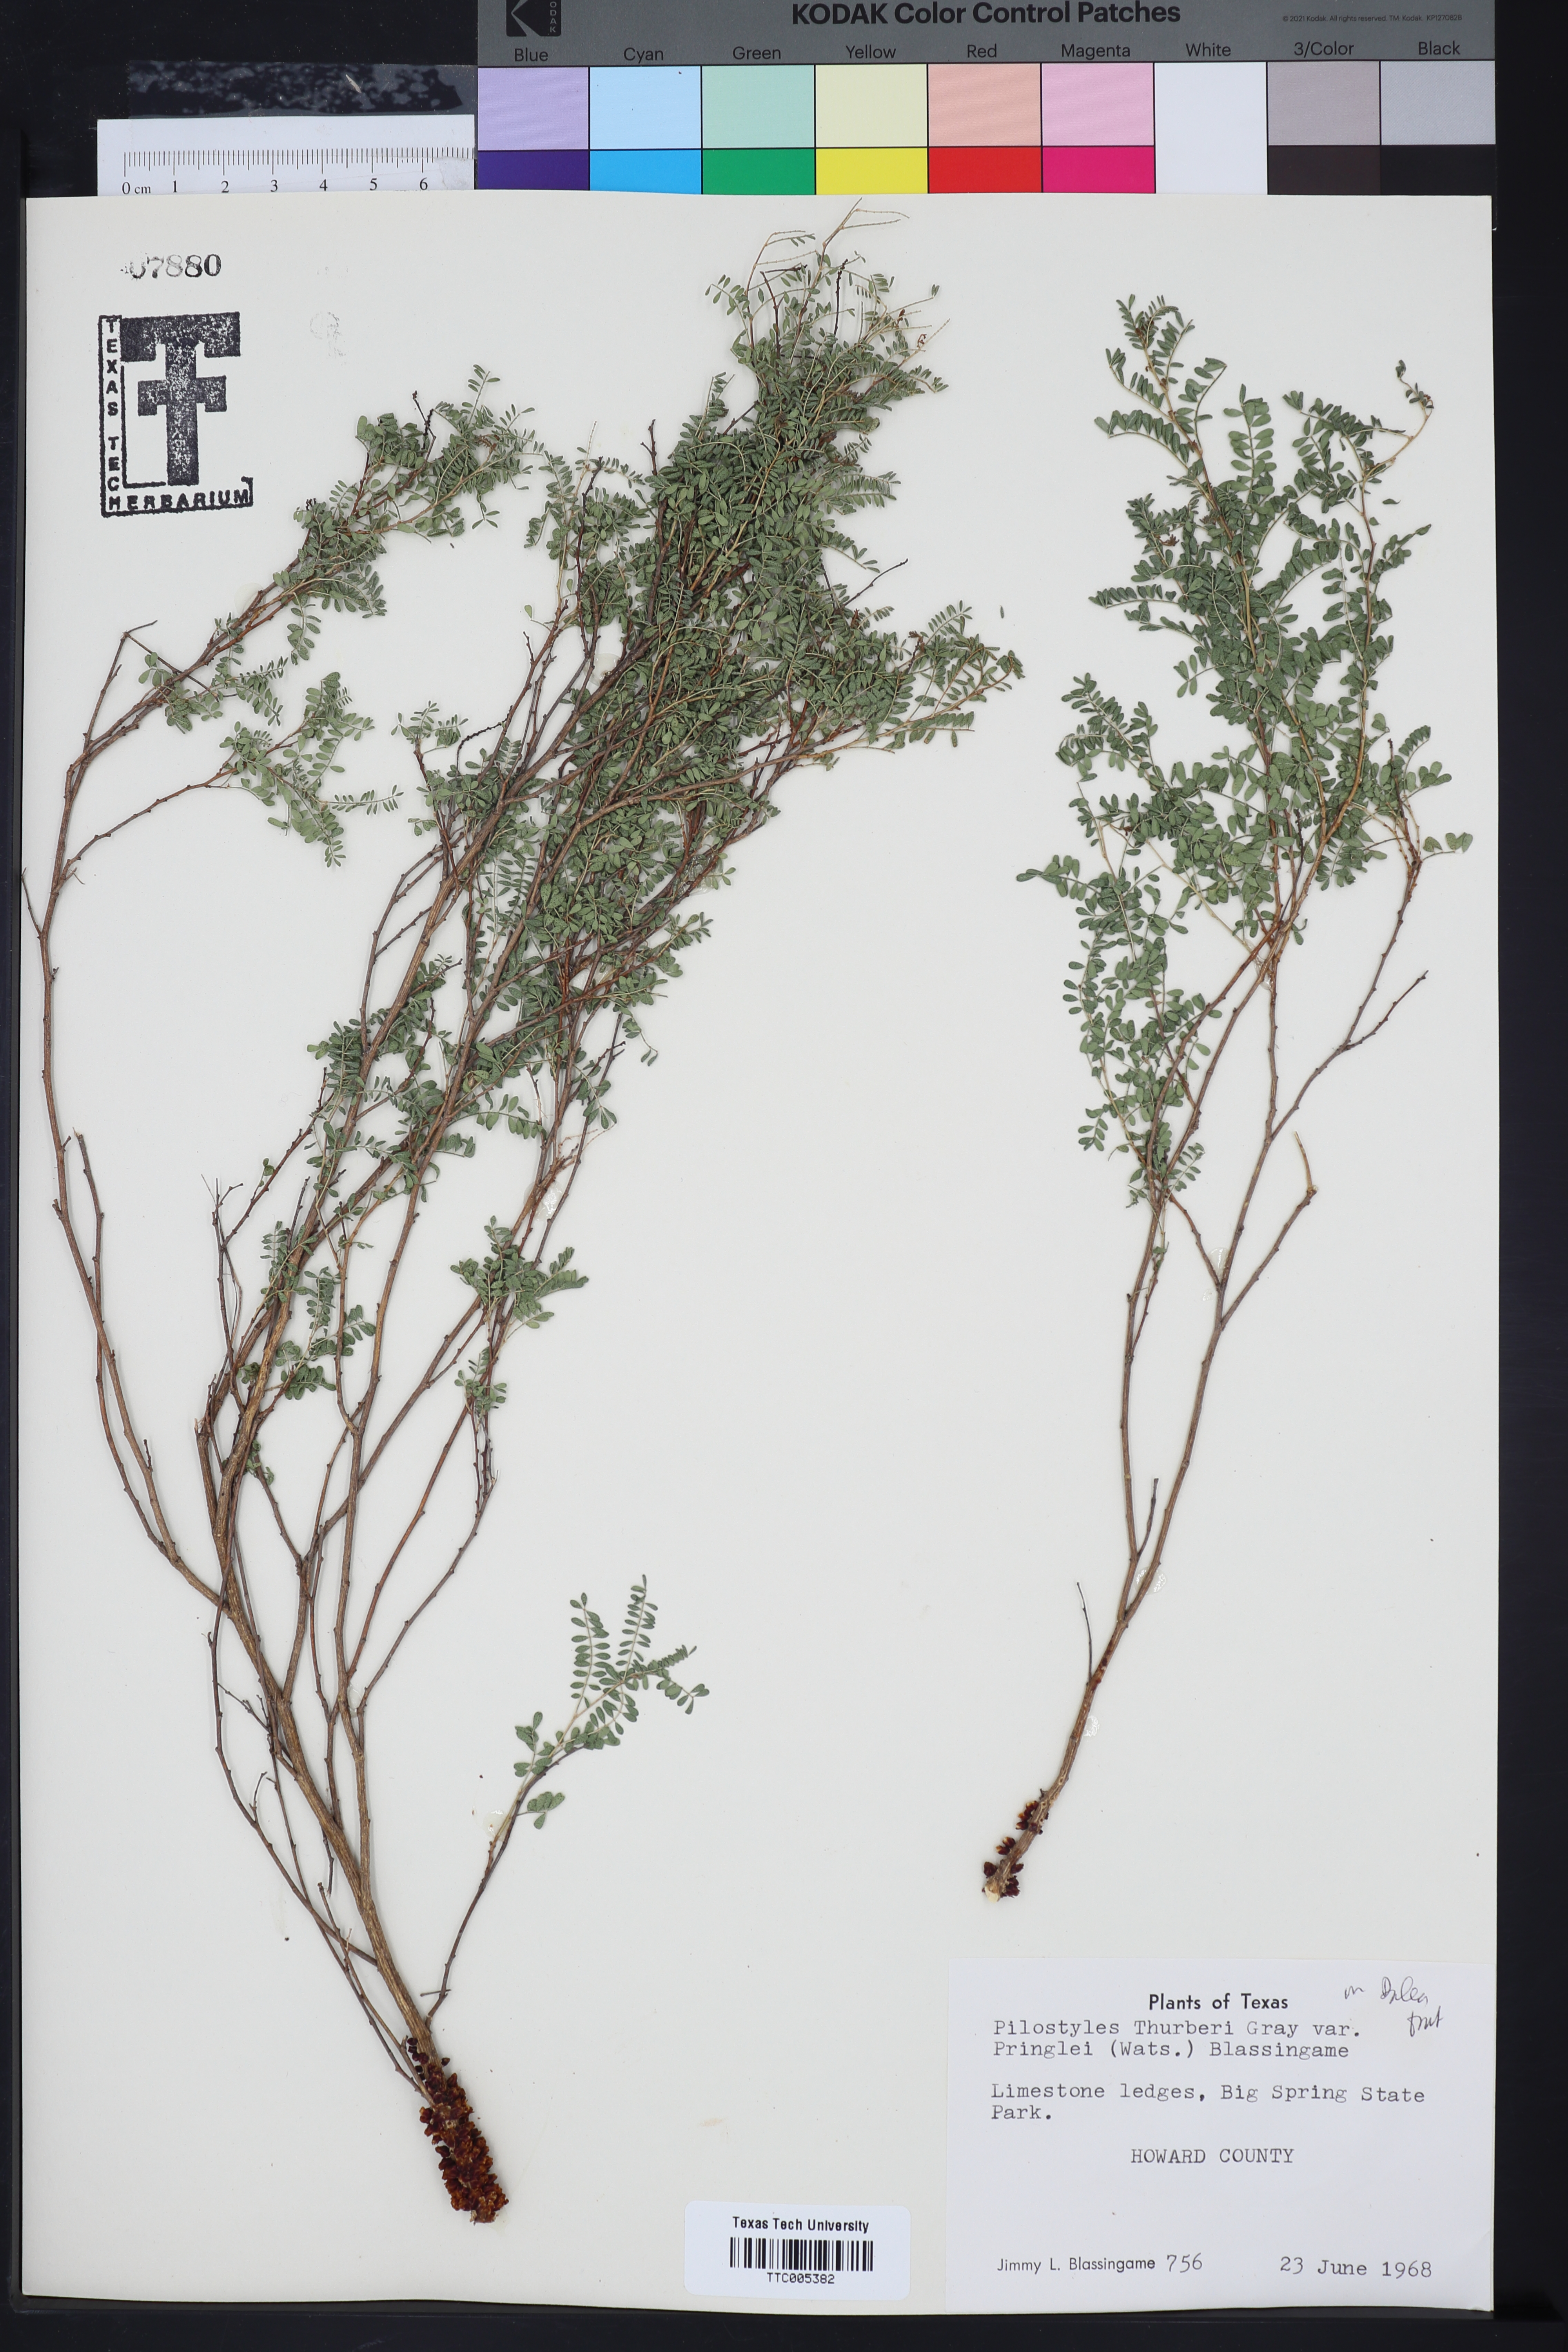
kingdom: Plantae
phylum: Tracheophyta
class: Magnoliopsida
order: Cucurbitales
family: Apodanthaceae
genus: Pilostyles
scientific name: Pilostyles thurberi
